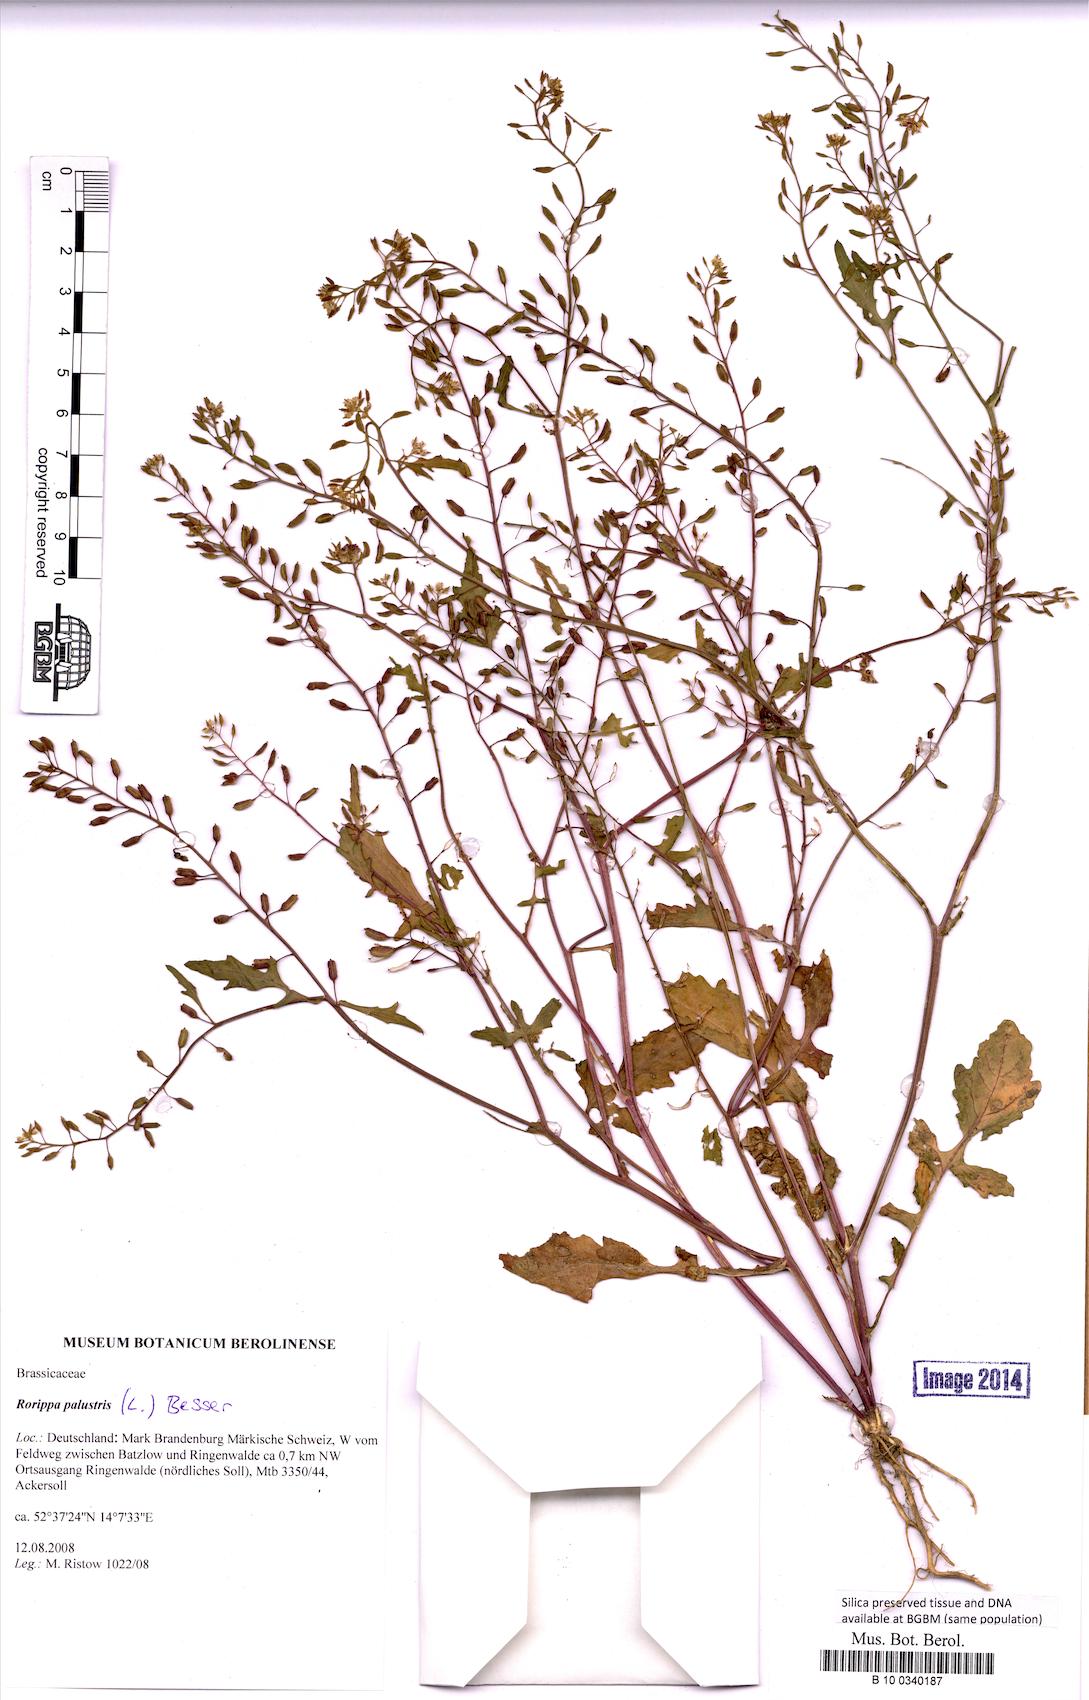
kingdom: Plantae
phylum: Tracheophyta
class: Magnoliopsida
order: Brassicales
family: Brassicaceae
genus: Rorippa
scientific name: Rorippa palustris
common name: Marsh yellow-cress
